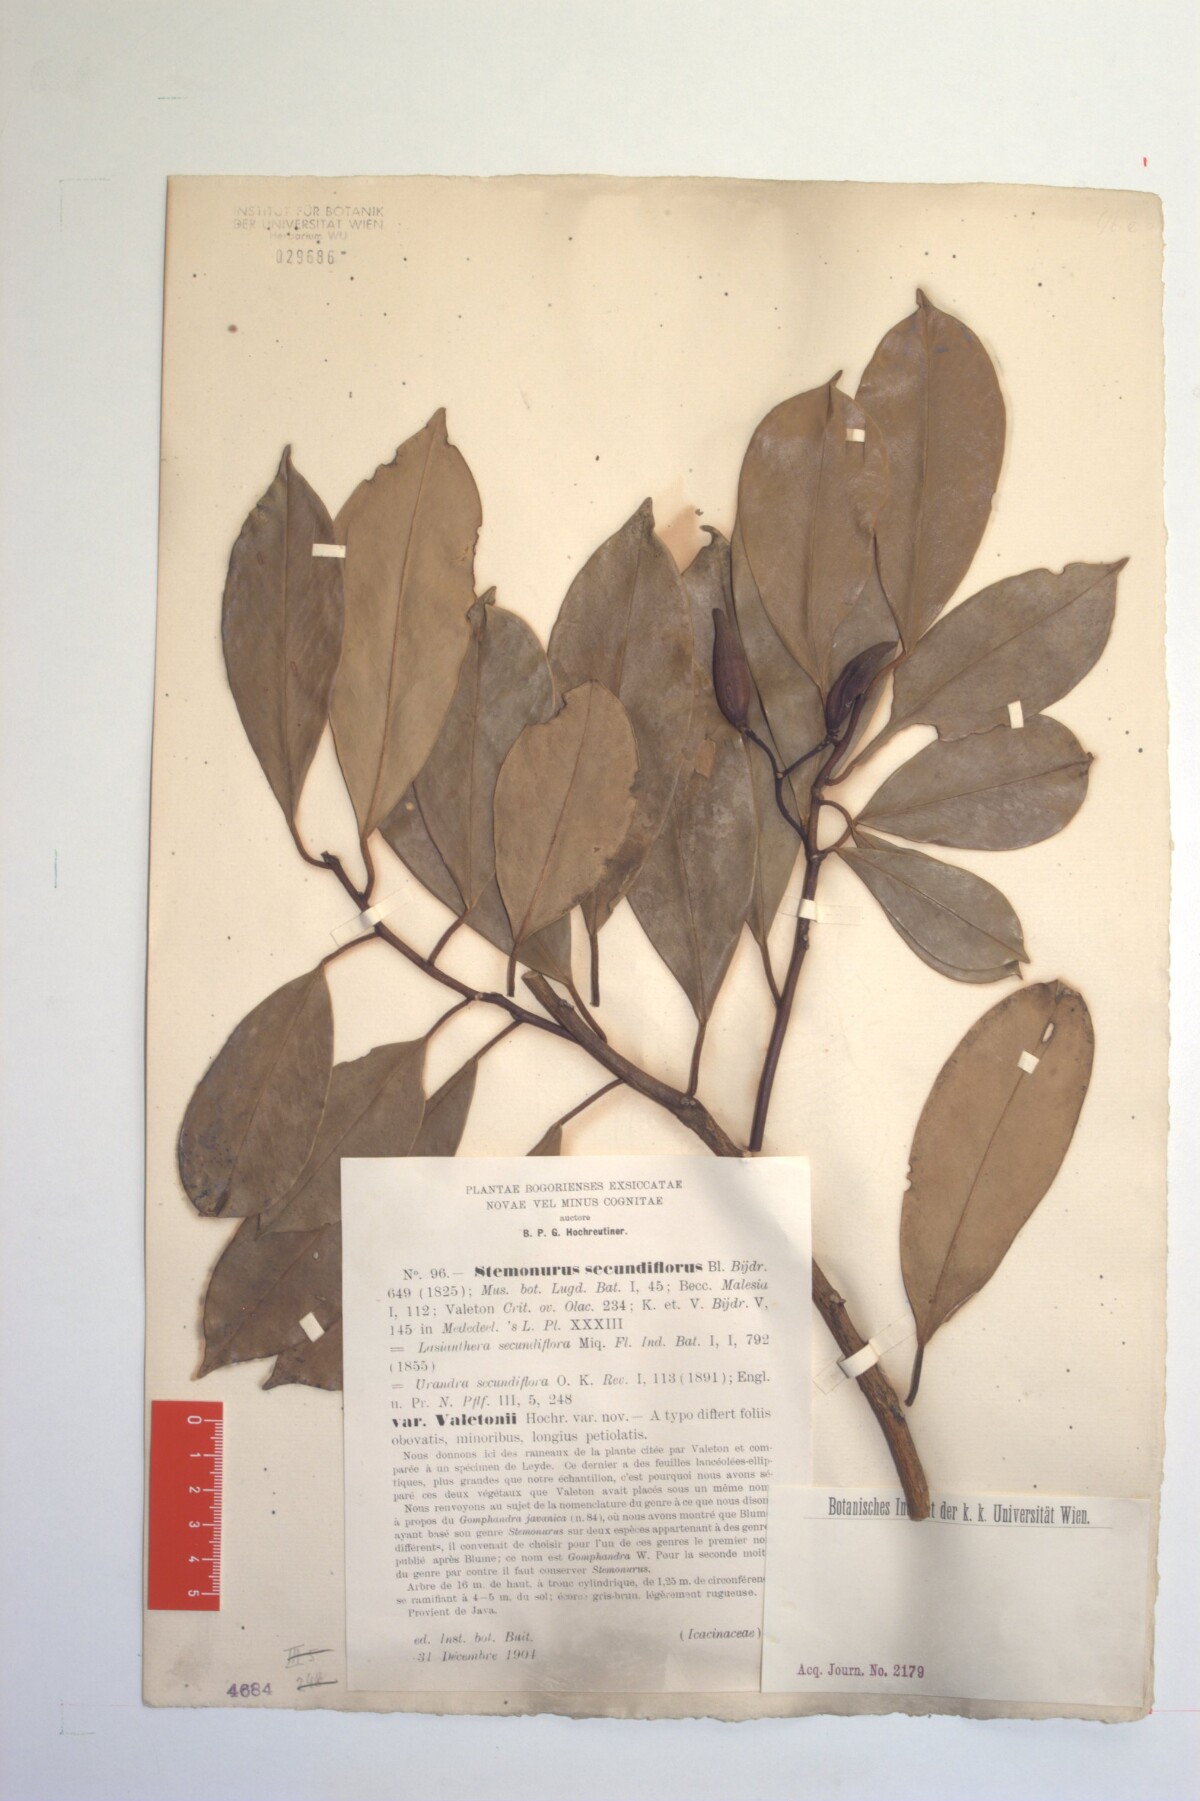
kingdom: Plantae
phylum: Tracheophyta
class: Magnoliopsida
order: Cardiopteridales
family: Stemonuraceae
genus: Stemonurus
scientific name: Stemonurus secundiflorus
